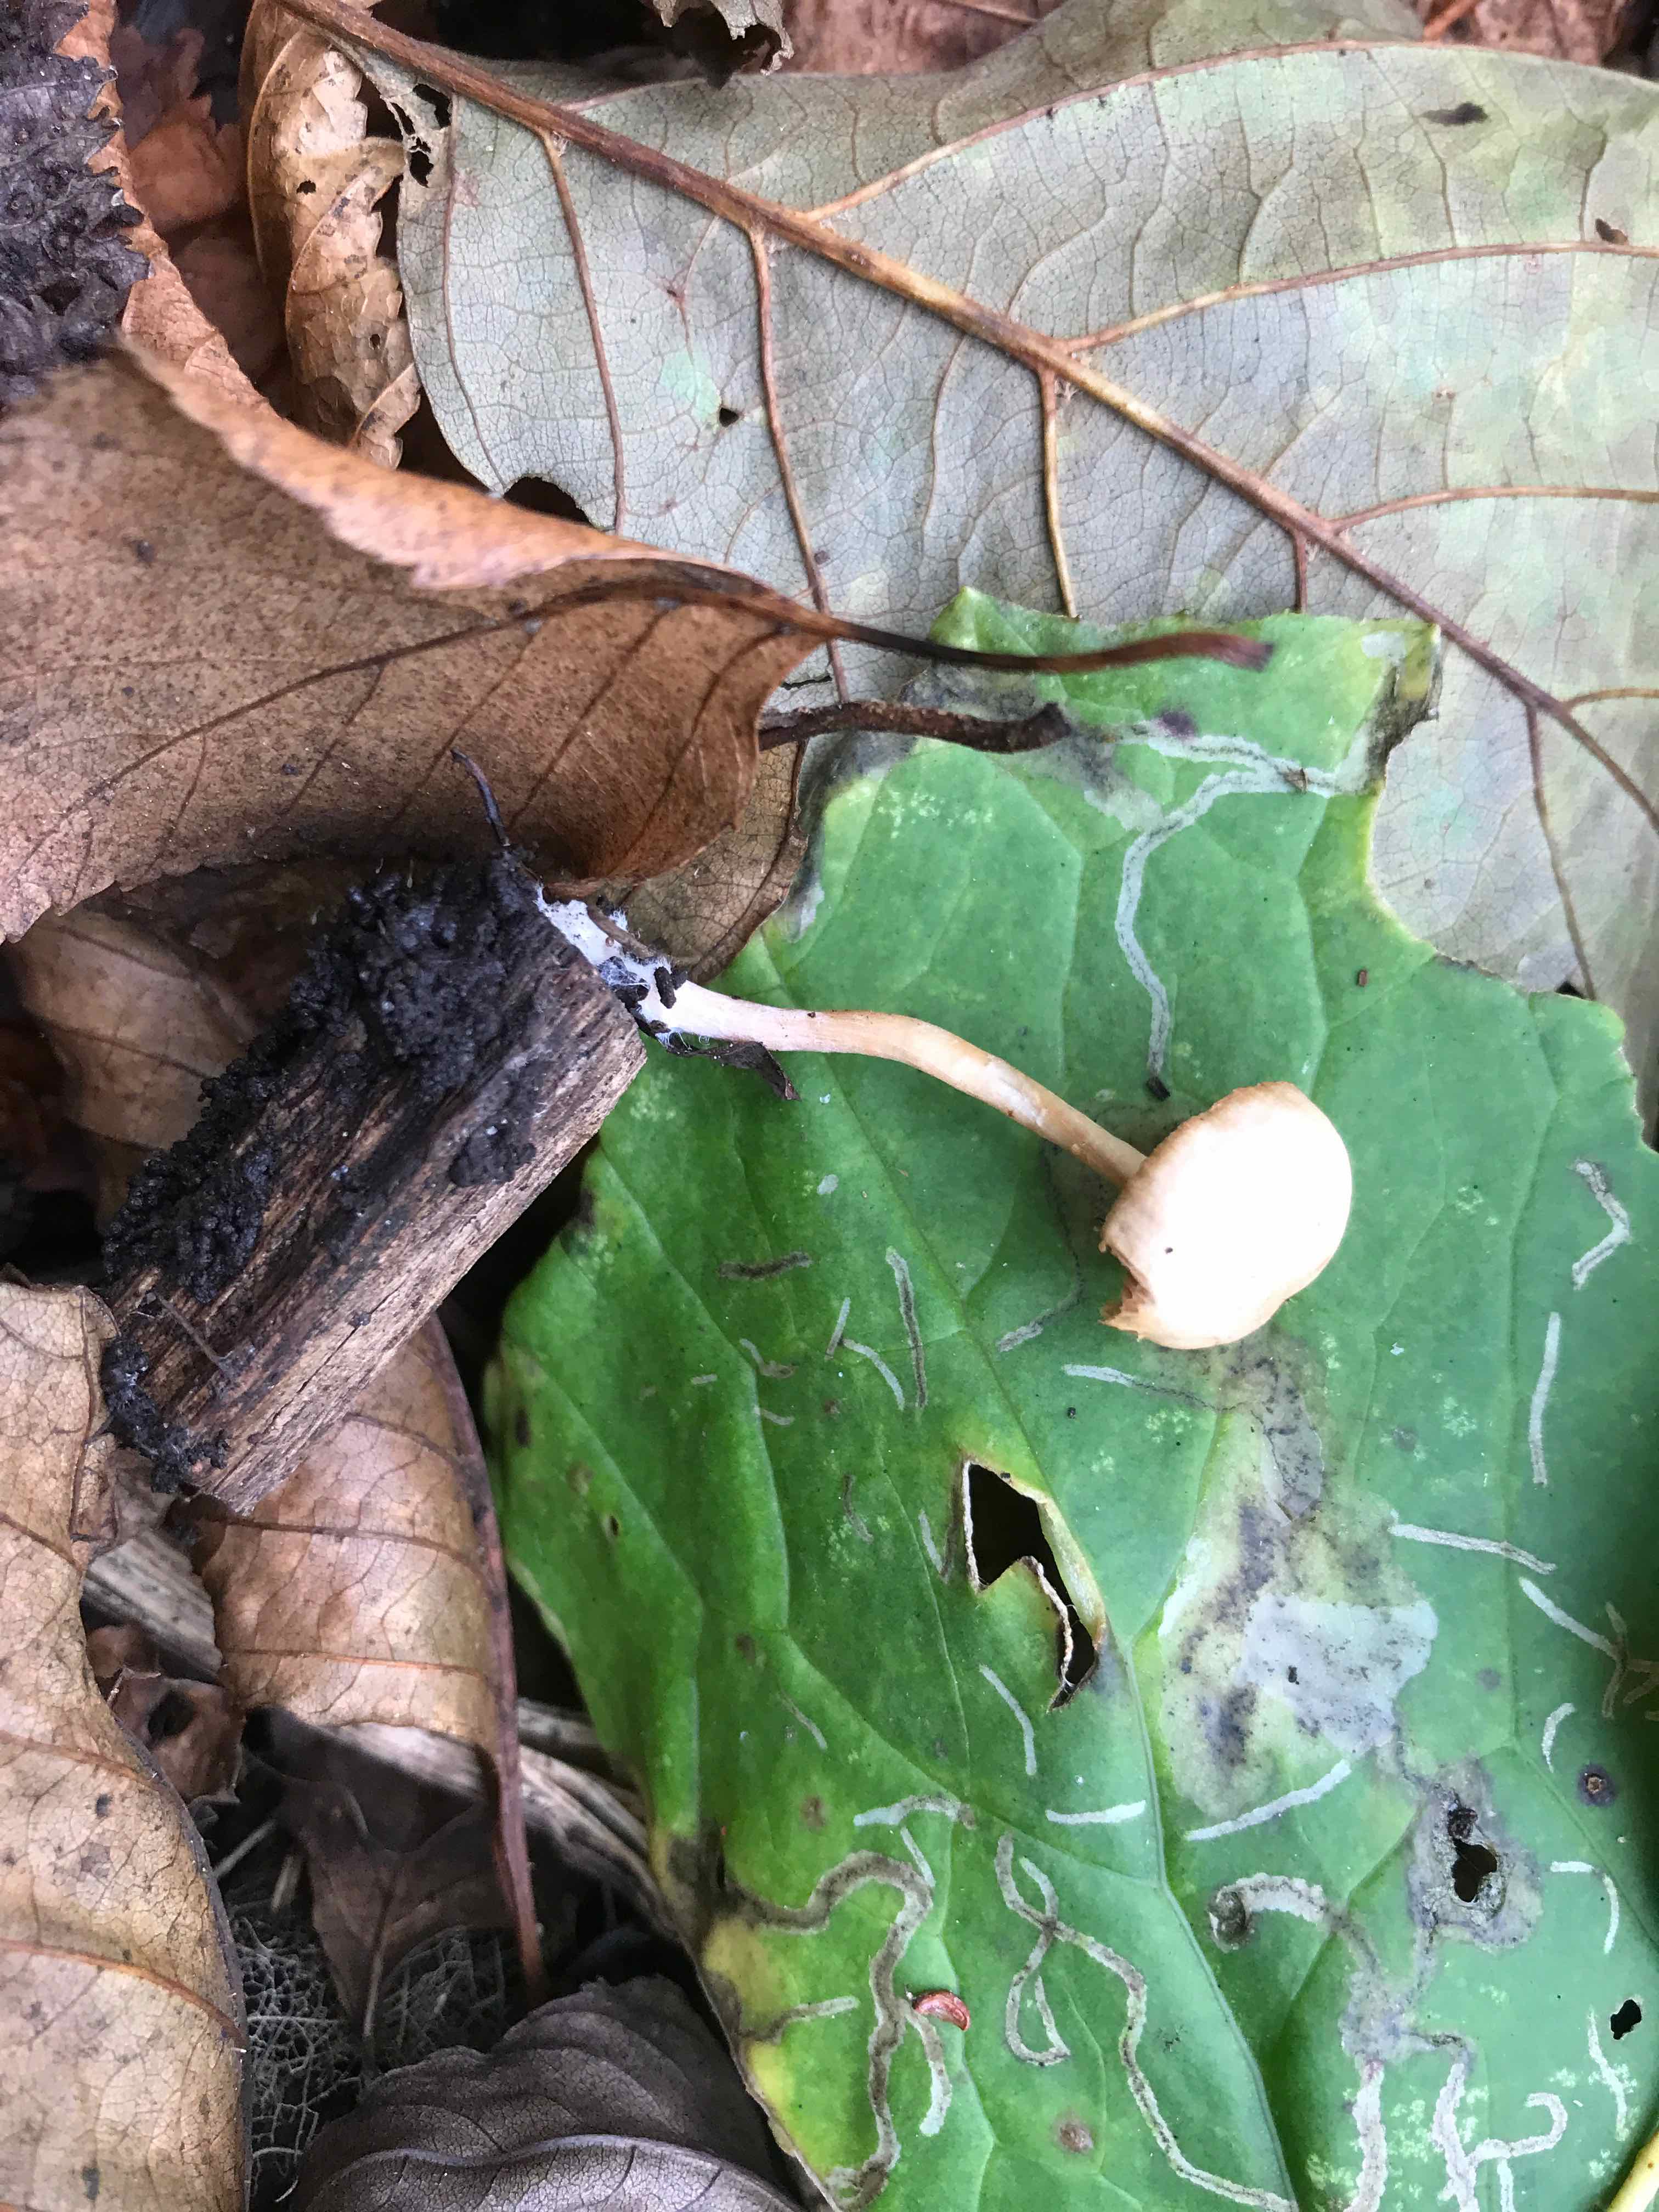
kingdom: Fungi
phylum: Basidiomycota
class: Agaricomycetes
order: Agaricales
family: Tubariaceae
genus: Tubaria
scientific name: Tubaria furfuracea
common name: kliddet fnughat
